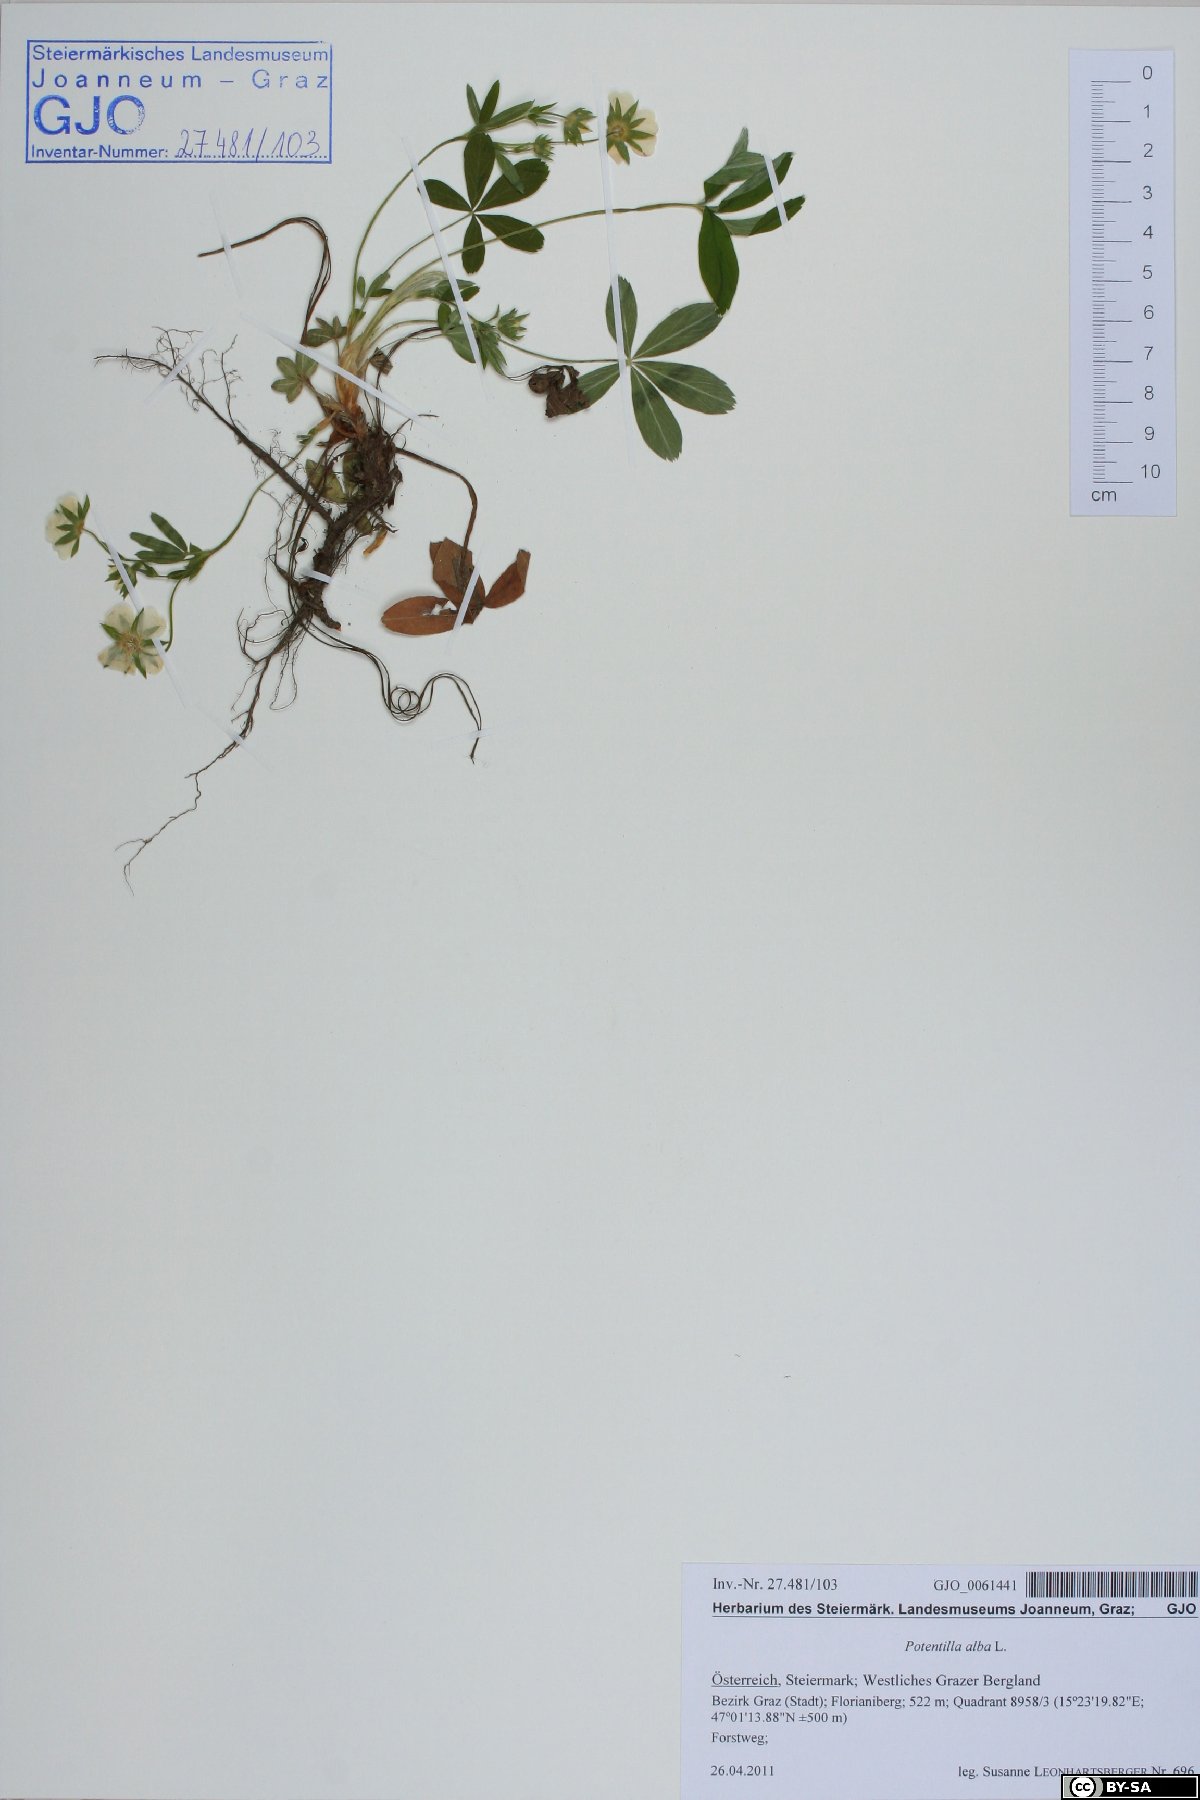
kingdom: Plantae
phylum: Tracheophyta
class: Magnoliopsida
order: Rosales
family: Rosaceae
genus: Potentilla
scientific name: Potentilla alba
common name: White cinquefoil
